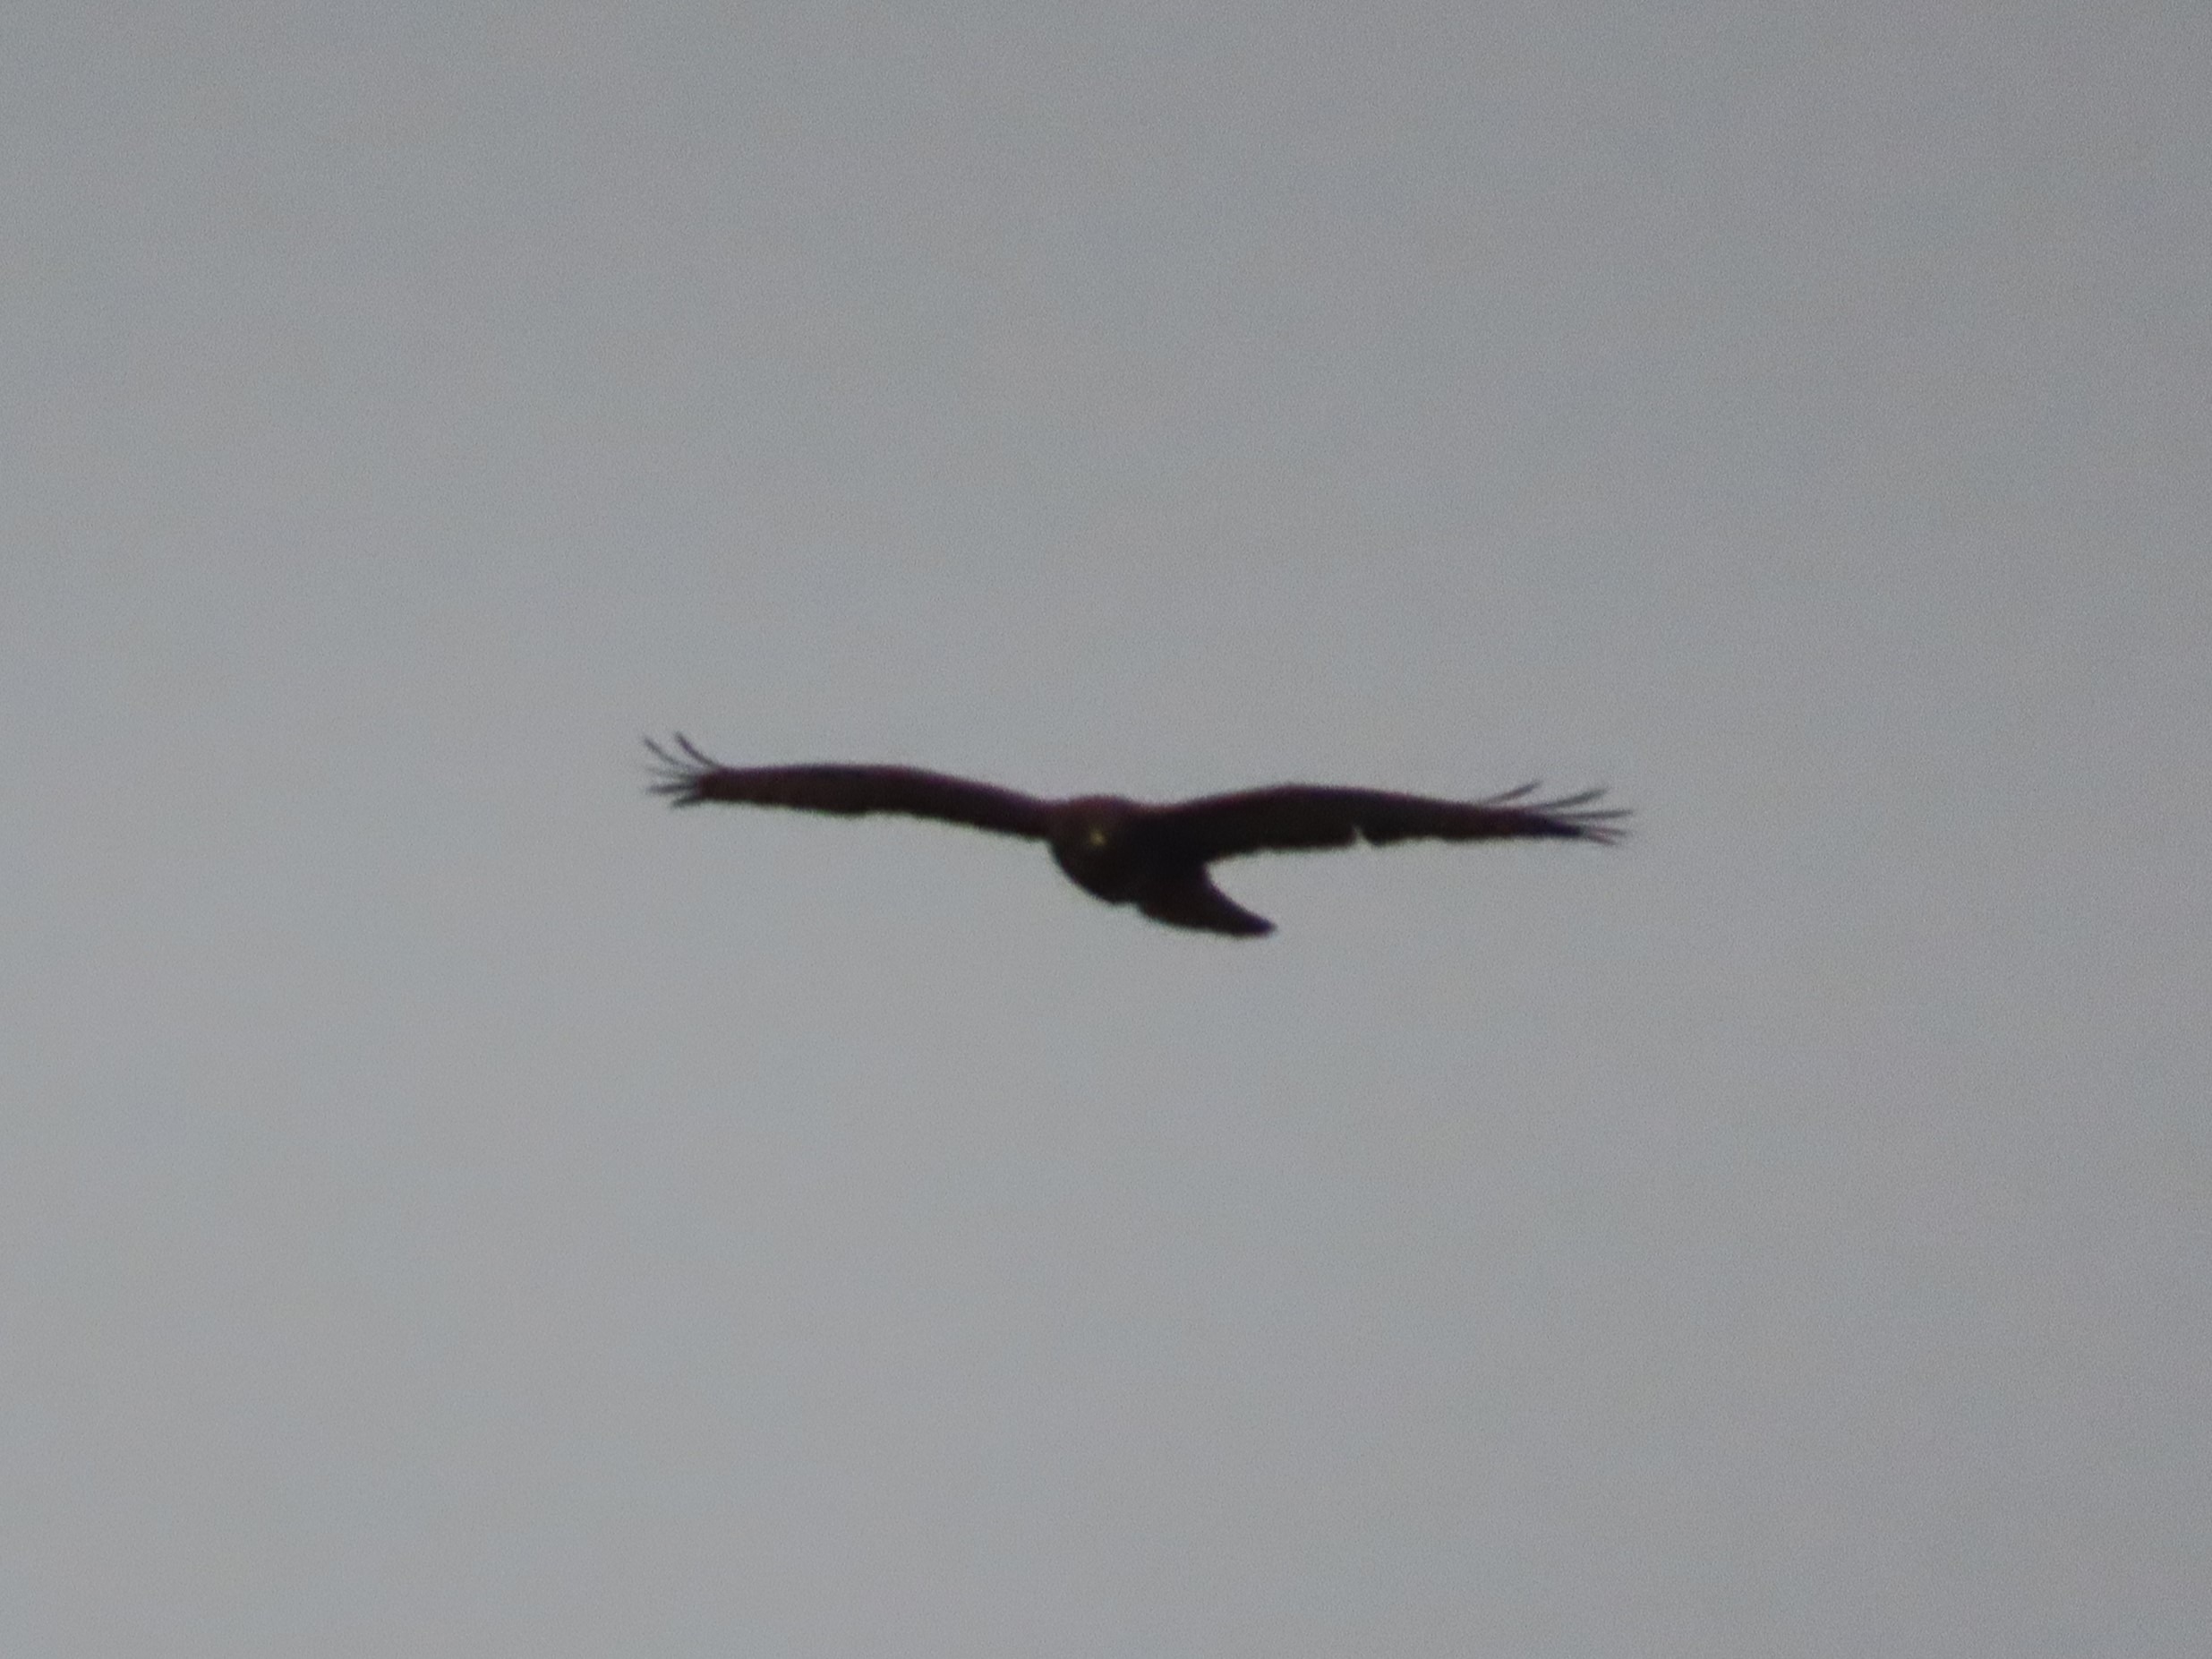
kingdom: Animalia
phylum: Chordata
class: Aves
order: Accipitriformes
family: Accipitridae
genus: Buteo
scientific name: Buteo buteo
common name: Musvåge
